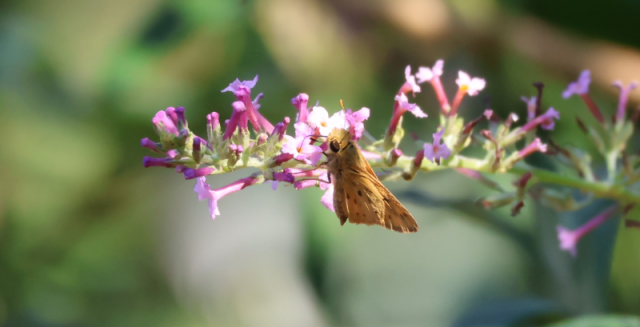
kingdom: Animalia
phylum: Arthropoda
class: Insecta
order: Lepidoptera
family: Hesperiidae
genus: Hylephila
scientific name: Hylephila phyleus
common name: Fiery Skipper
